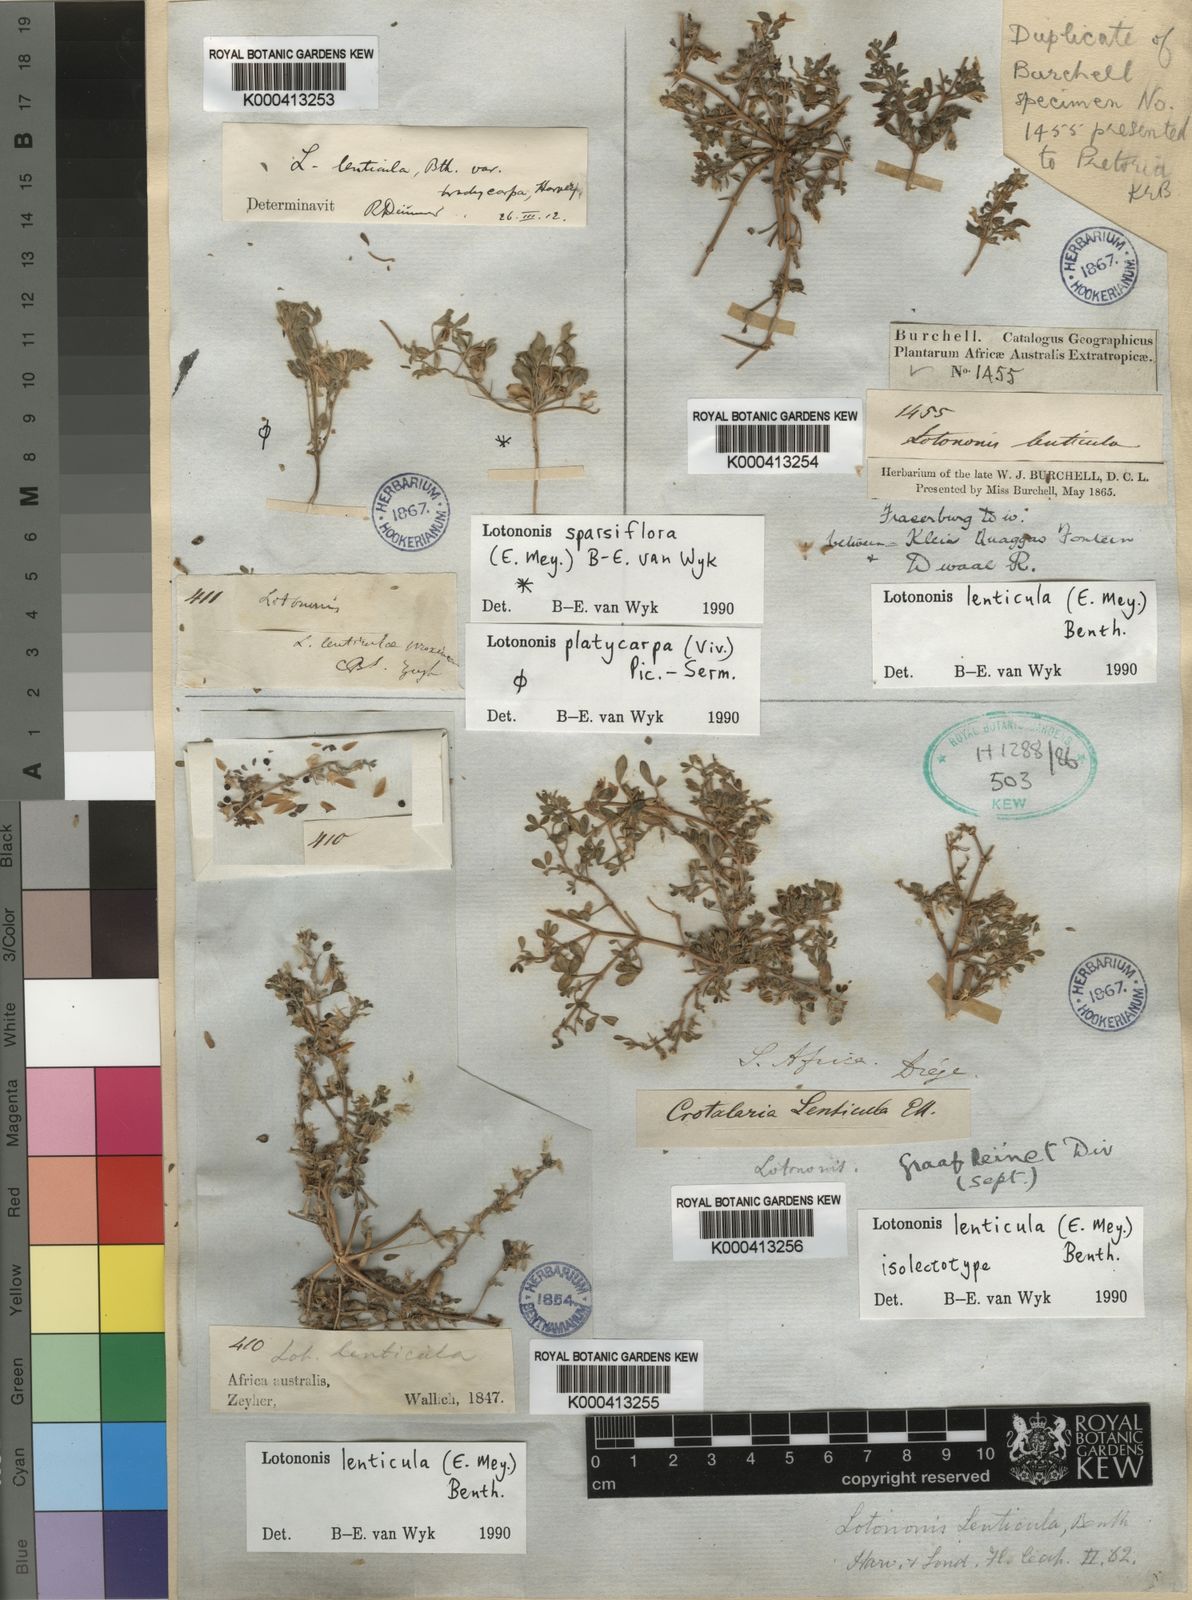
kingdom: Plantae
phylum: Tracheophyta
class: Magnoliopsida
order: Fabales
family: Fabaceae
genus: Lotononis
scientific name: Lotononis sparsiflora
